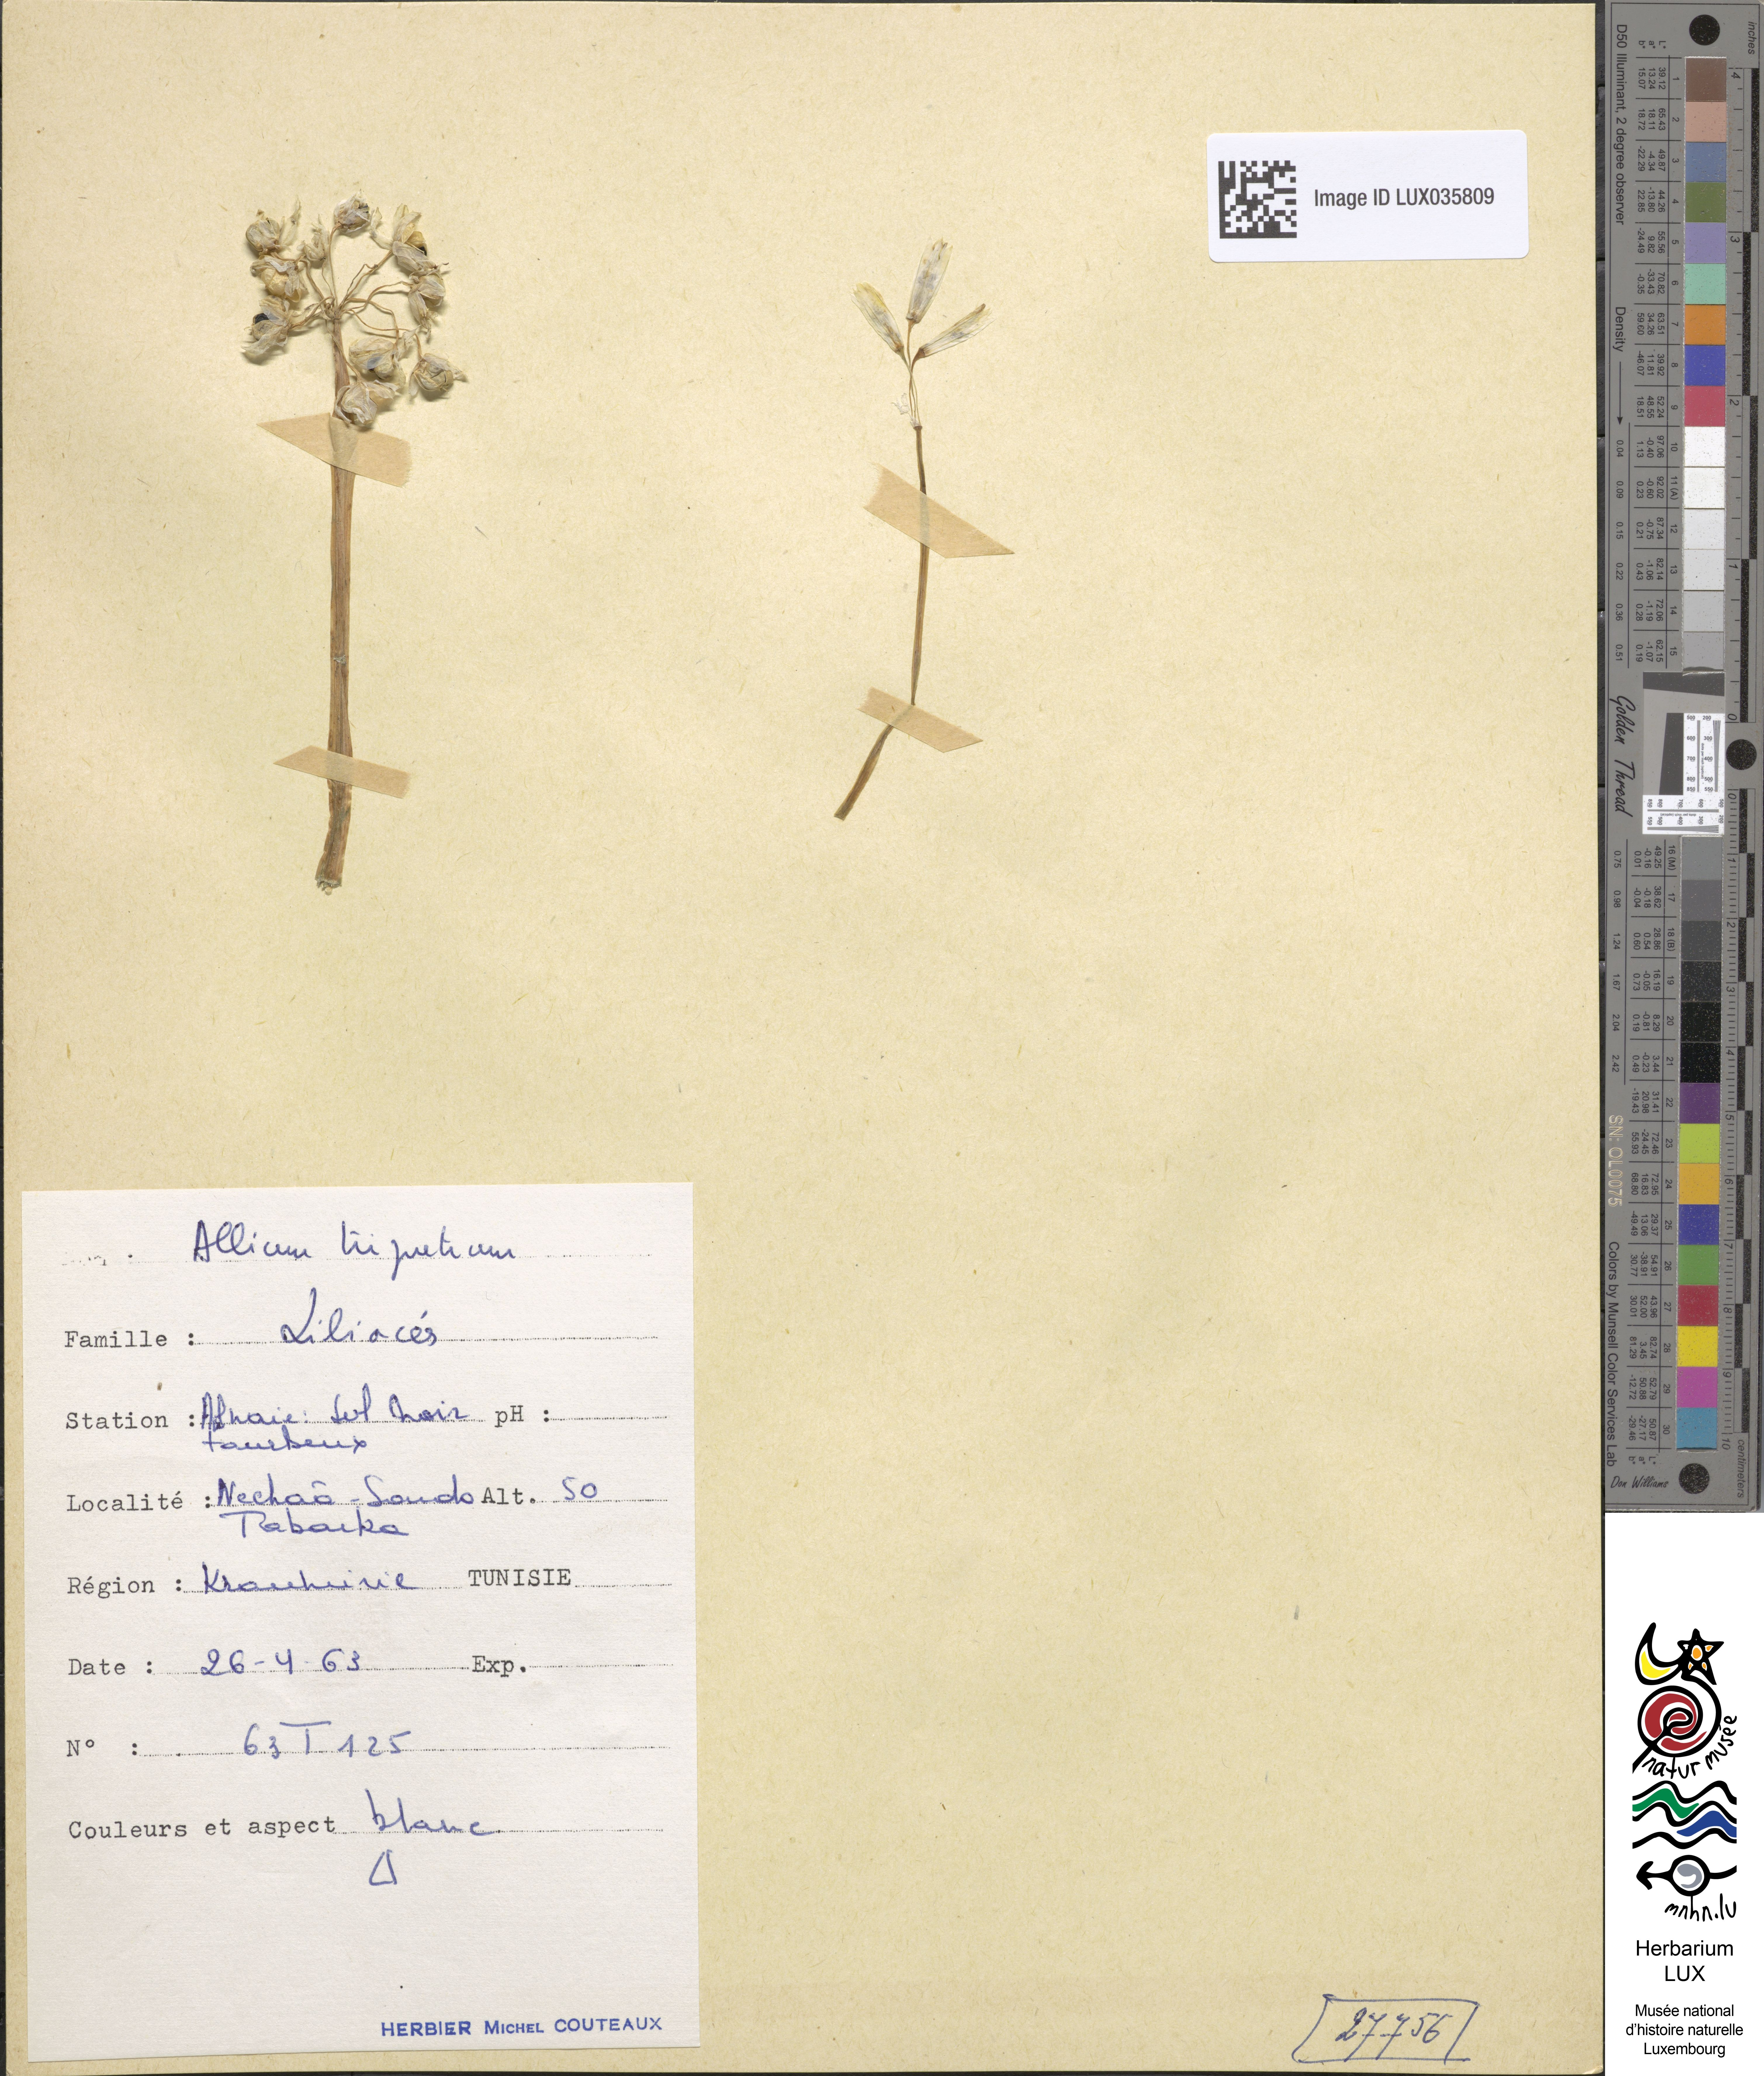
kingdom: Plantae
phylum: Tracheophyta
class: Liliopsida
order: Asparagales
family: Amaryllidaceae
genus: Allium
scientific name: Allium triquetrum
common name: Three-cornered garlic
